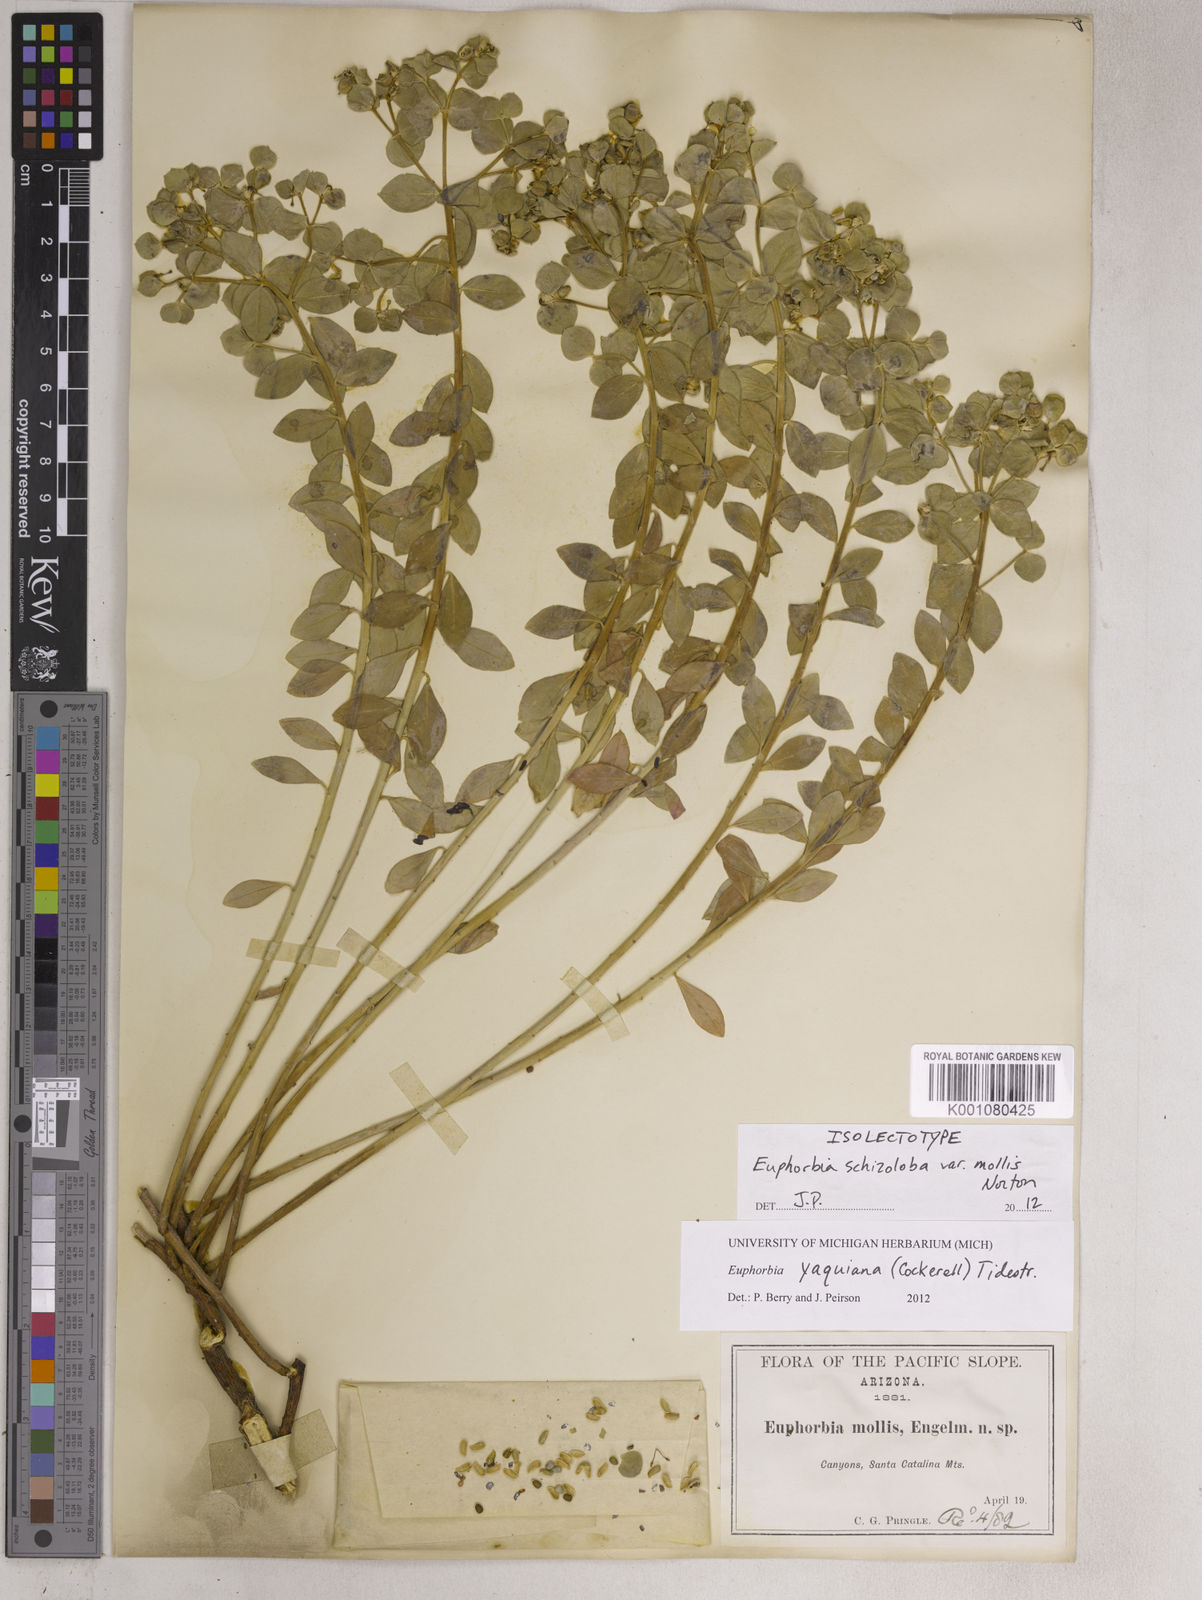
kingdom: Plantae
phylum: Tracheophyta
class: Magnoliopsida
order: Malpighiales
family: Euphorbiaceae
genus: Euphorbia
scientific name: Euphorbia yaquiana
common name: Hairy mojave spurge
